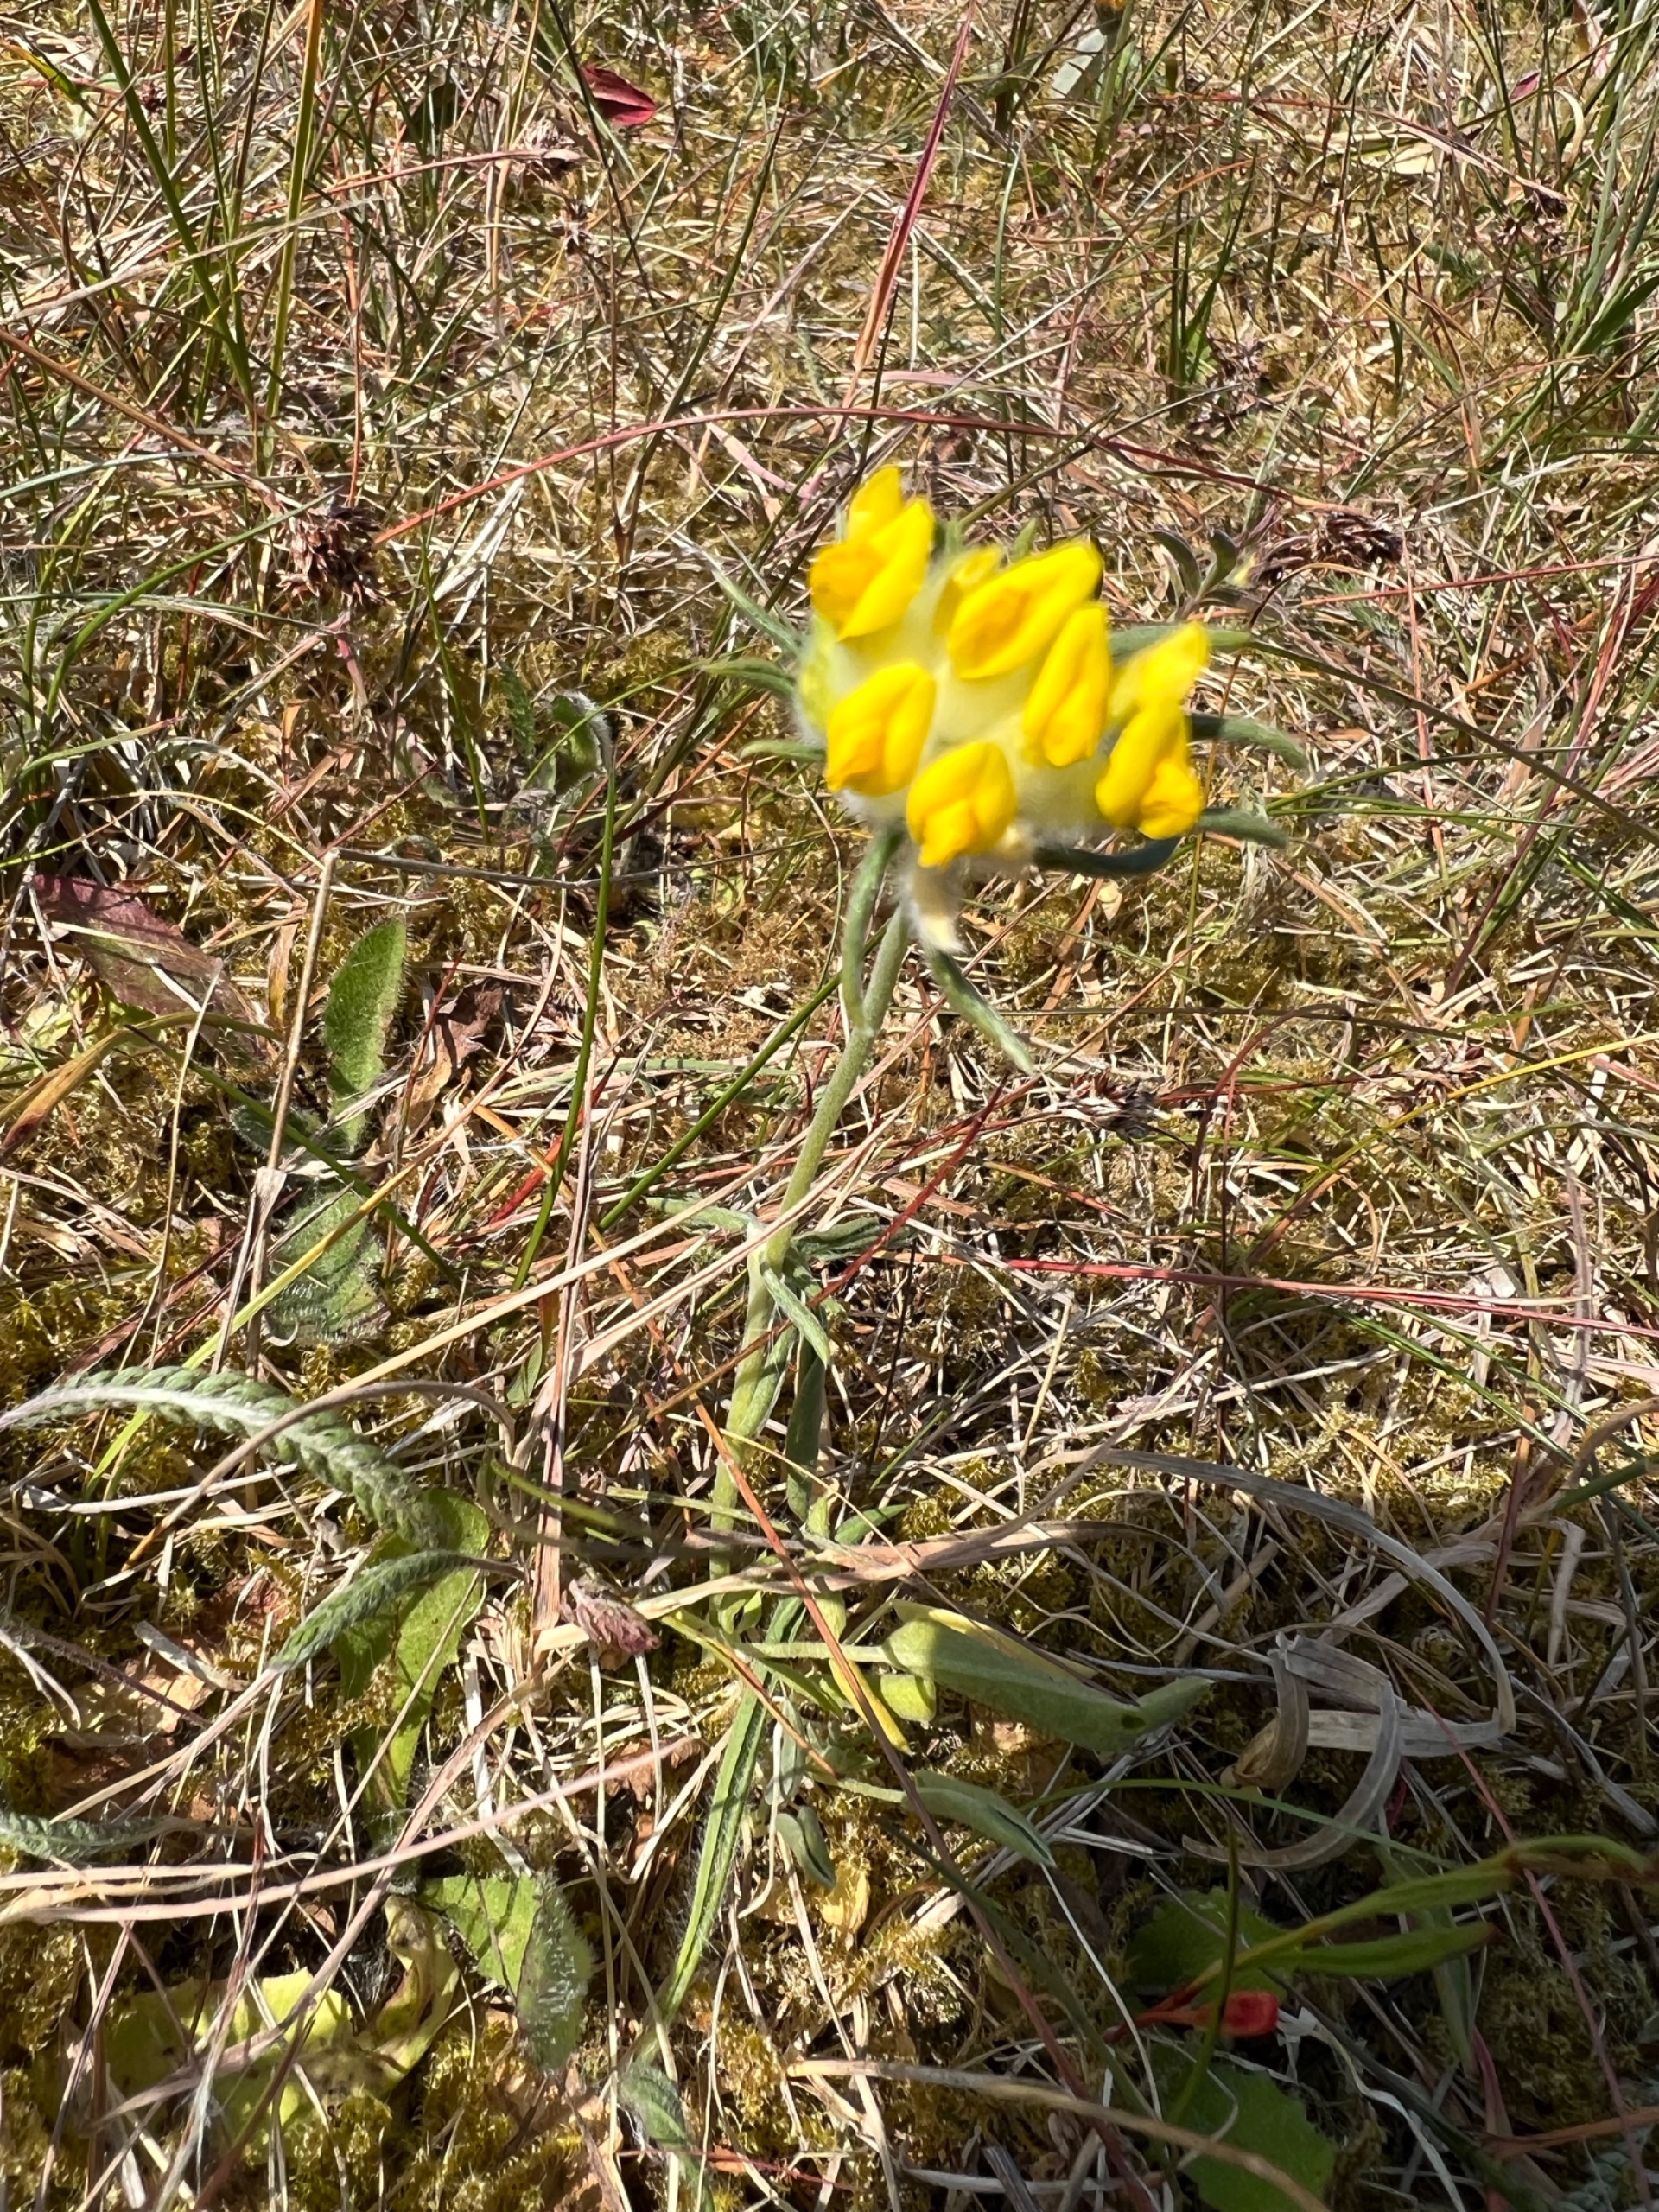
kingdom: Plantae
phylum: Tracheophyta
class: Magnoliopsida
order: Fabales
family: Fabaceae
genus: Anthyllis
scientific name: Anthyllis vulneraria
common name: Rundbælg
